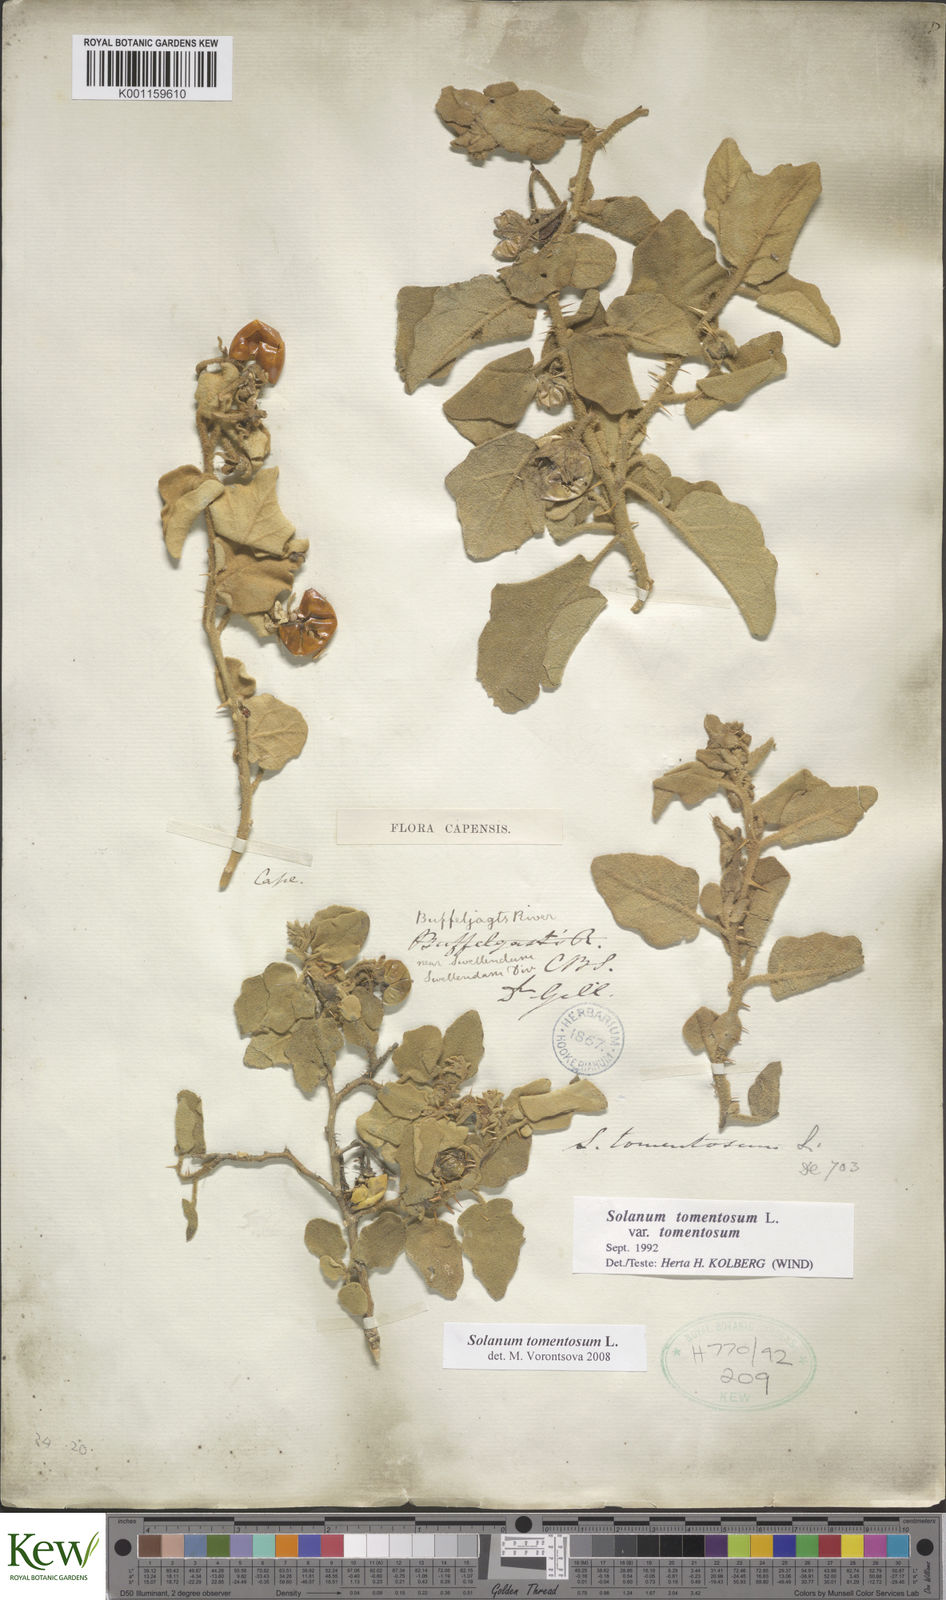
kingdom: Plantae
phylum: Tracheophyta
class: Magnoliopsida
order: Solanales
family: Solanaceae
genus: Solanum
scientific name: Solanum tomentosum
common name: Wild aubergine
